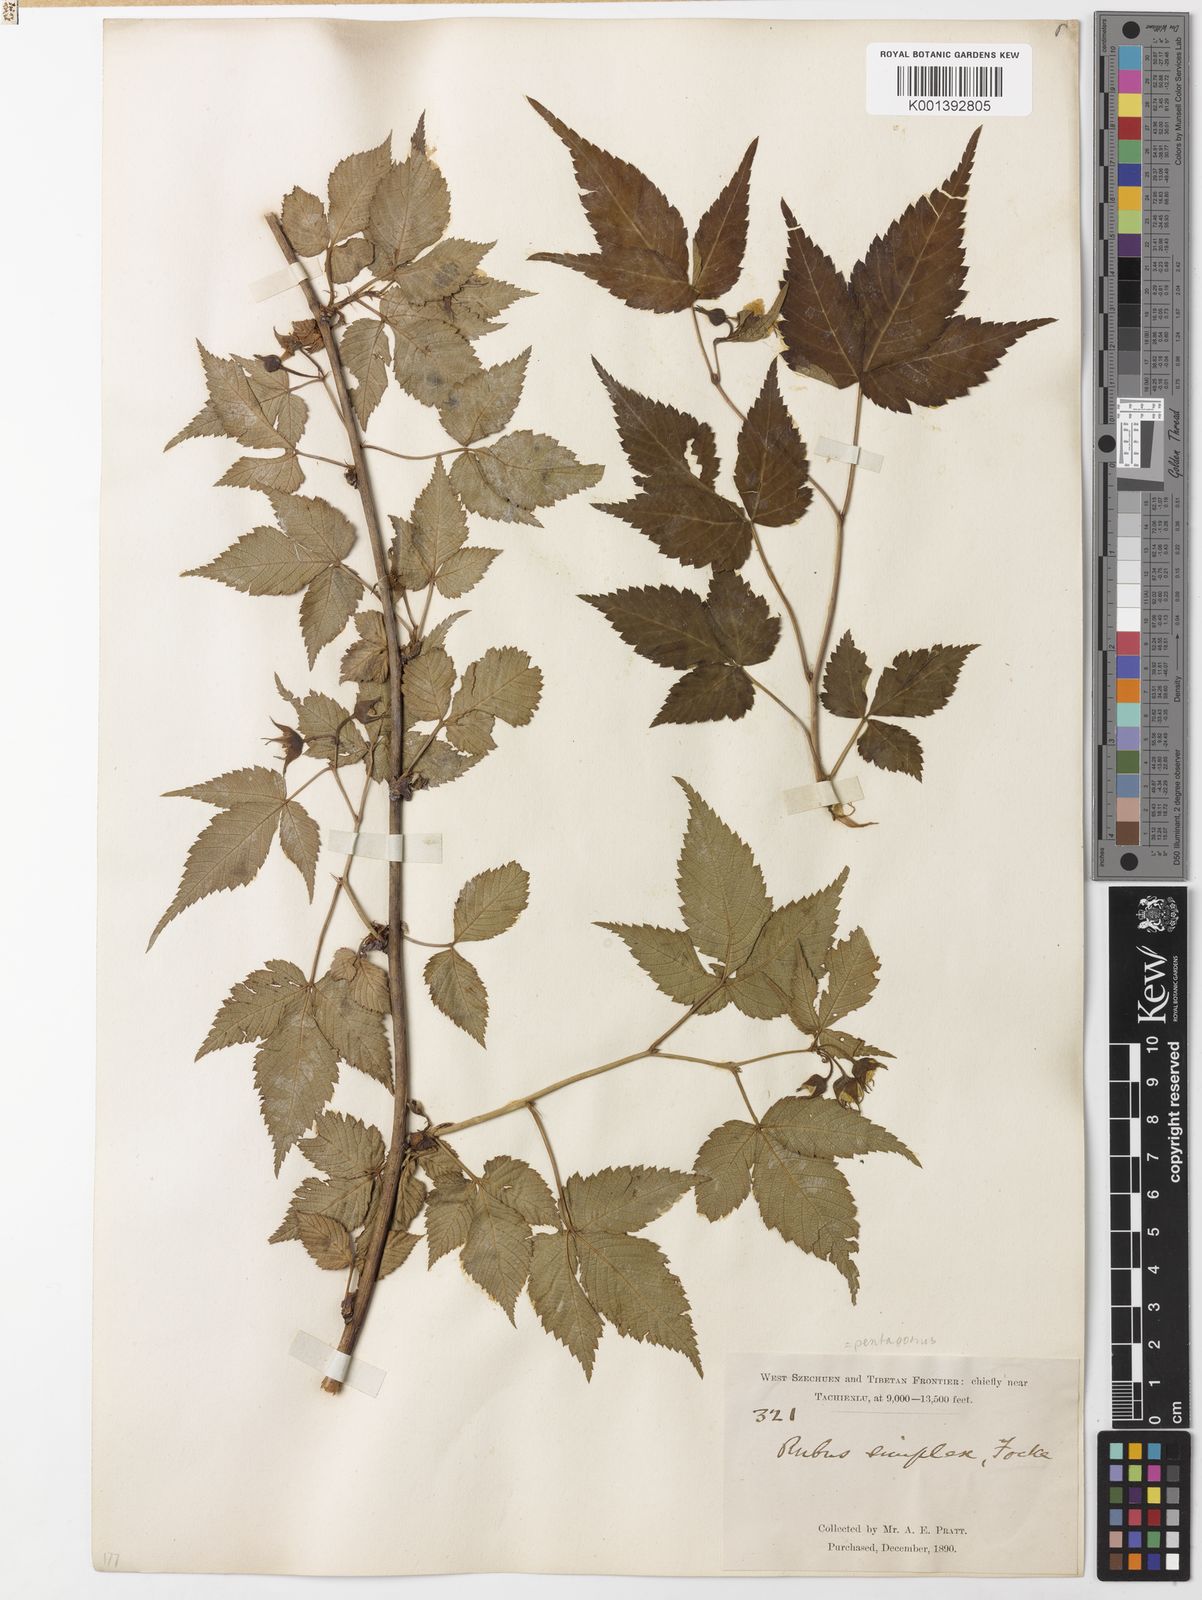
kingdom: Plantae
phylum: Tracheophyta
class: Magnoliopsida
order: Rosales
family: Rosaceae
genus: Rubus
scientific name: Rubus simplex
